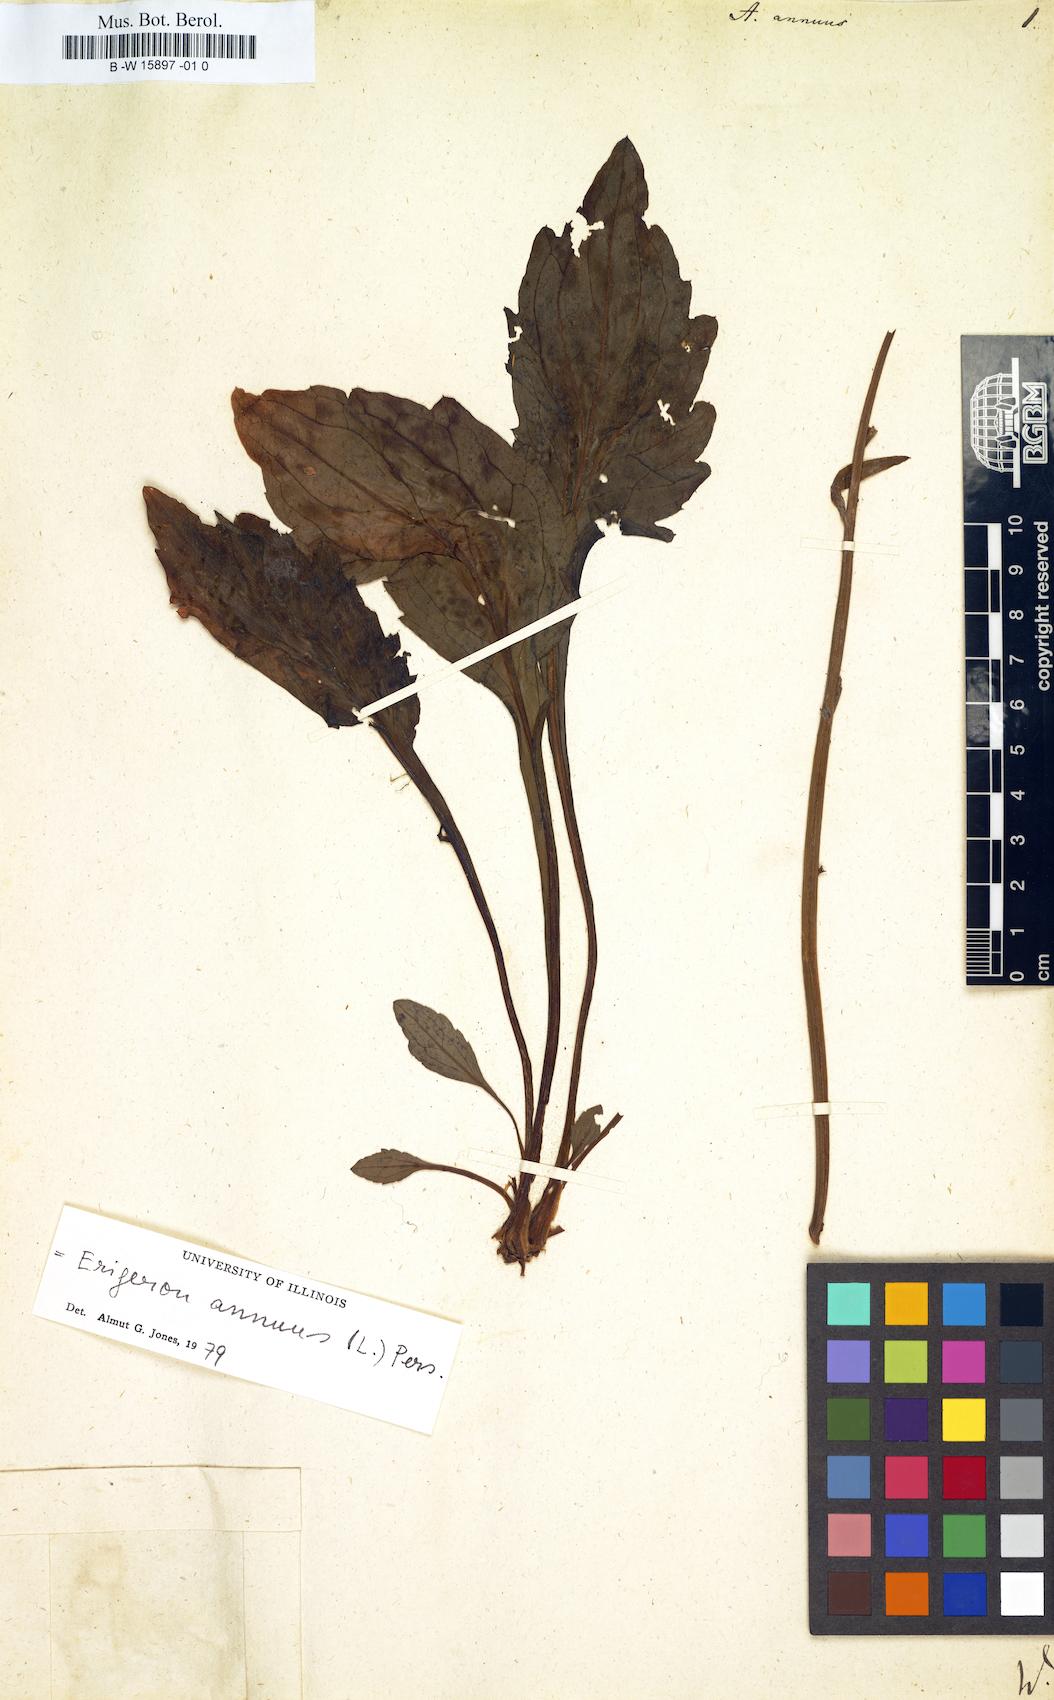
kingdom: Plantae
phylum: Tracheophyta
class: Magnoliopsida
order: Asterales
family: Asteraceae
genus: Erigeron
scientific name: Erigeron annuus
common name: Tall fleabane
